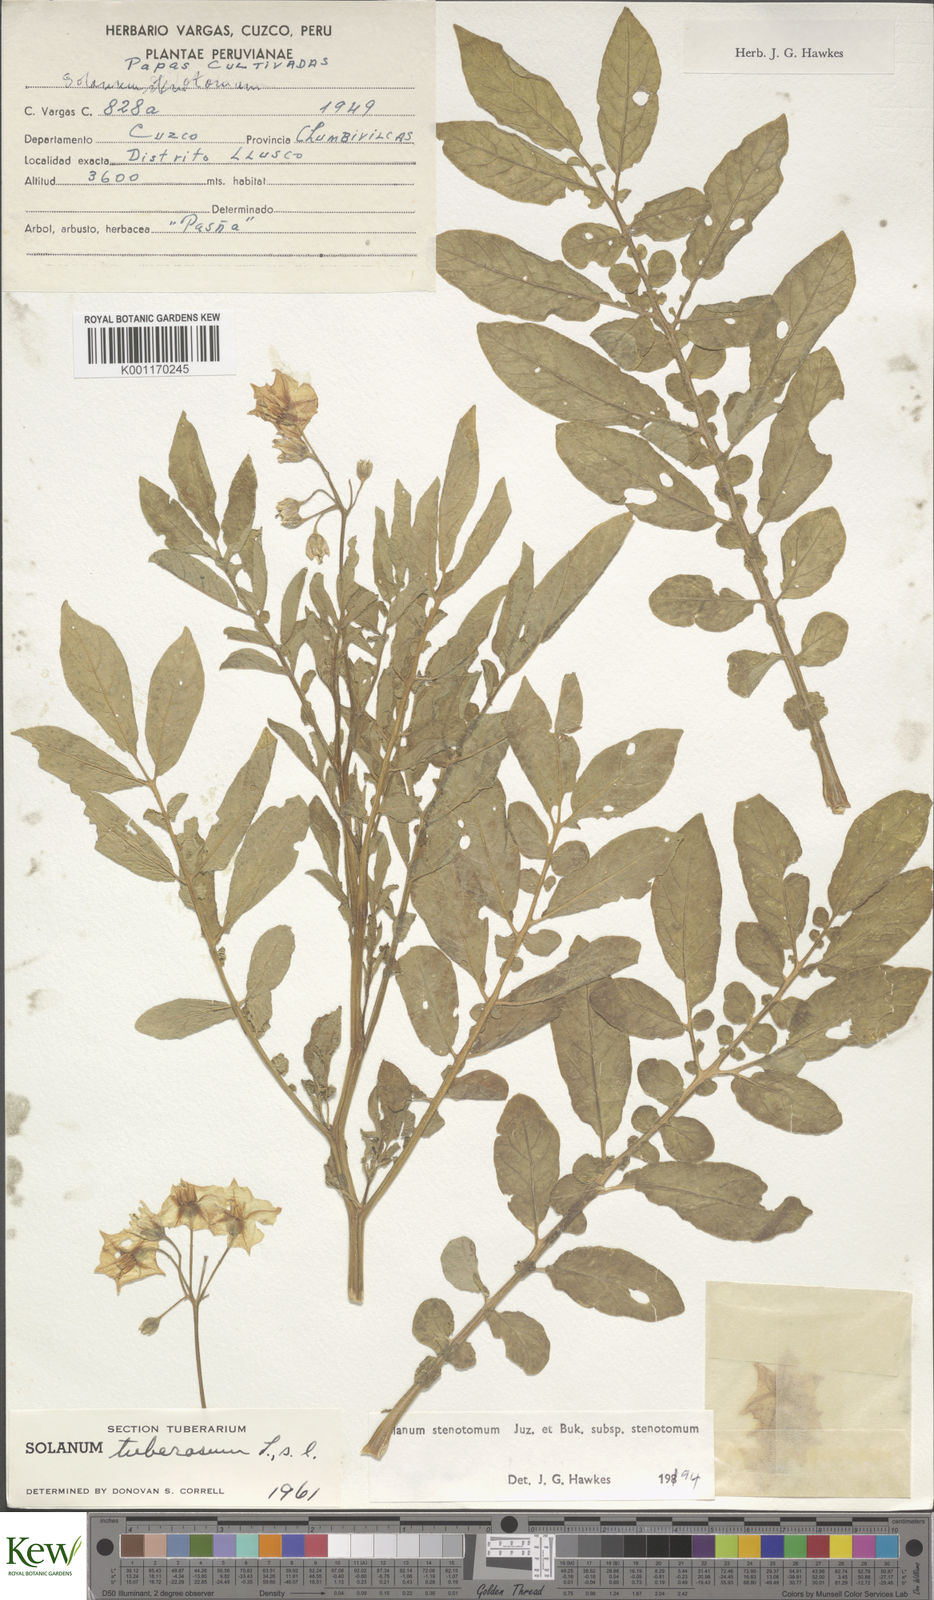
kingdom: Plantae
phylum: Tracheophyta
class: Magnoliopsida
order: Solanales
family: Solanaceae
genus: Solanum
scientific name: Solanum tuberosum
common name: Potato
